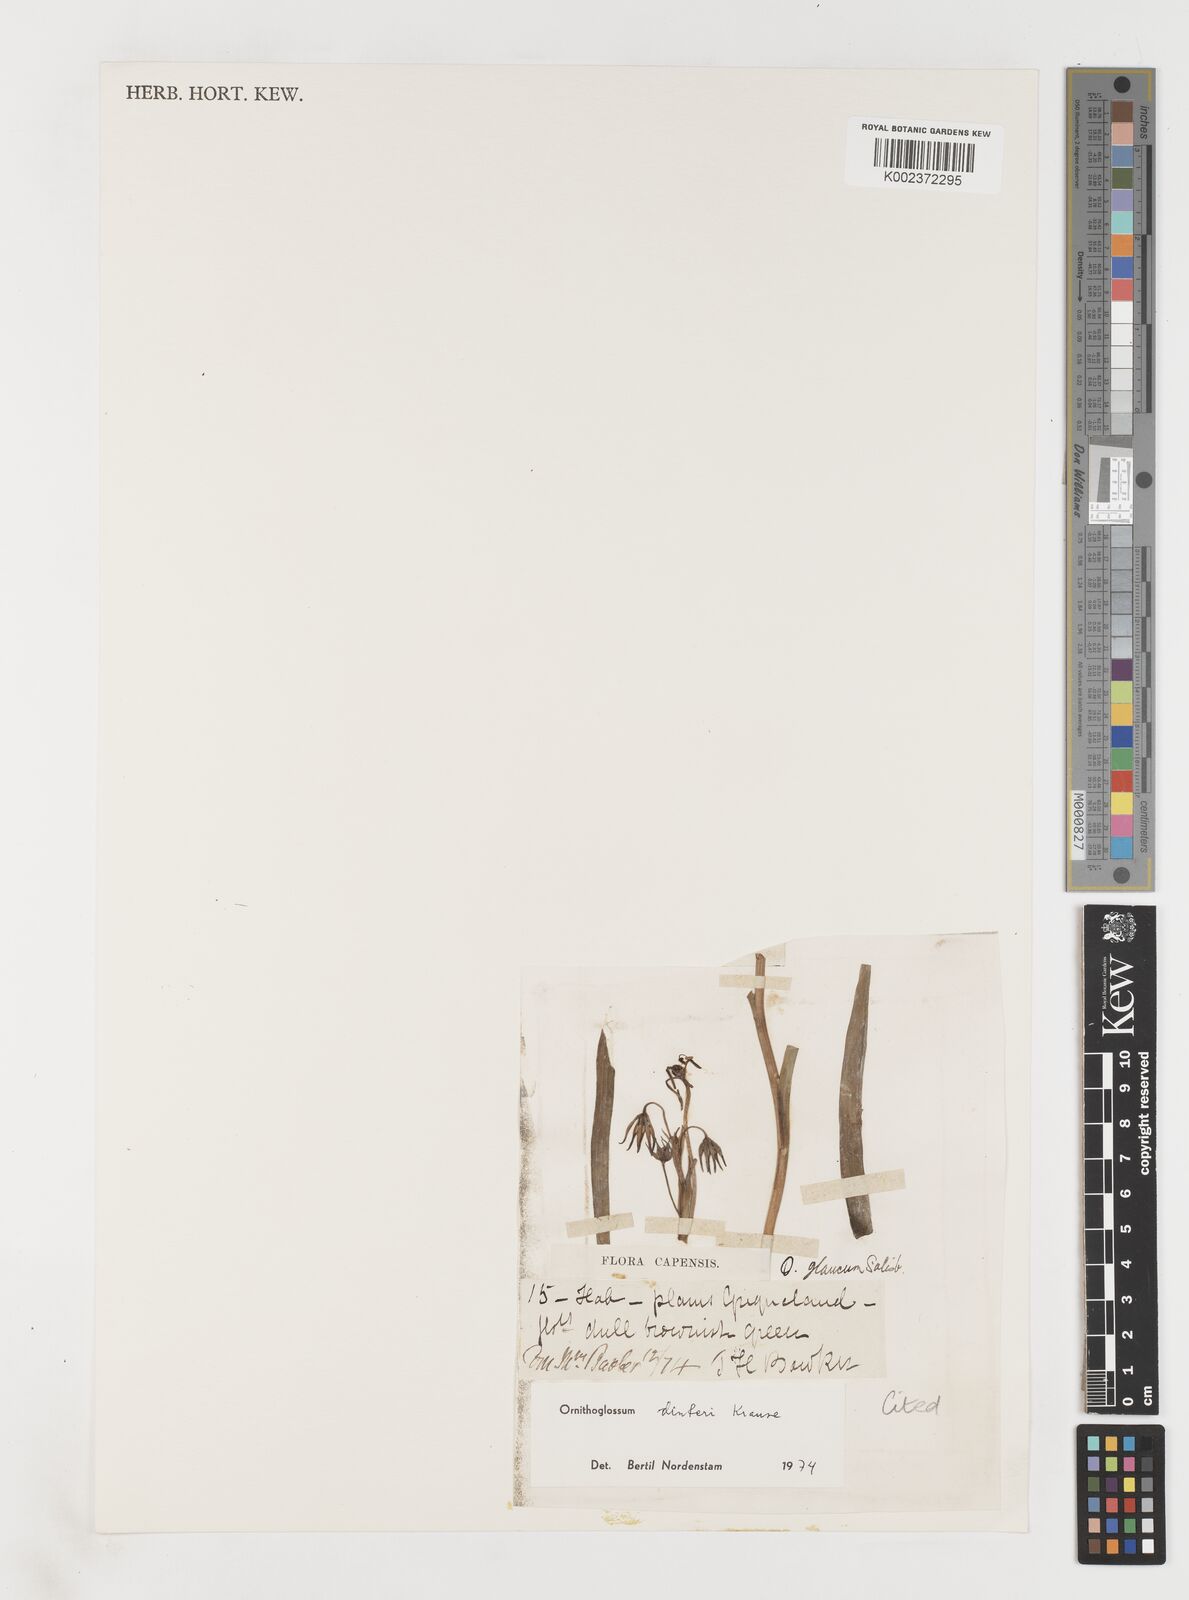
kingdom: Plantae
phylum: Tracheophyta
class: Liliopsida
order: Liliales
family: Colchicaceae
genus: Ornithoglossum
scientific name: Ornithoglossum dinteri
